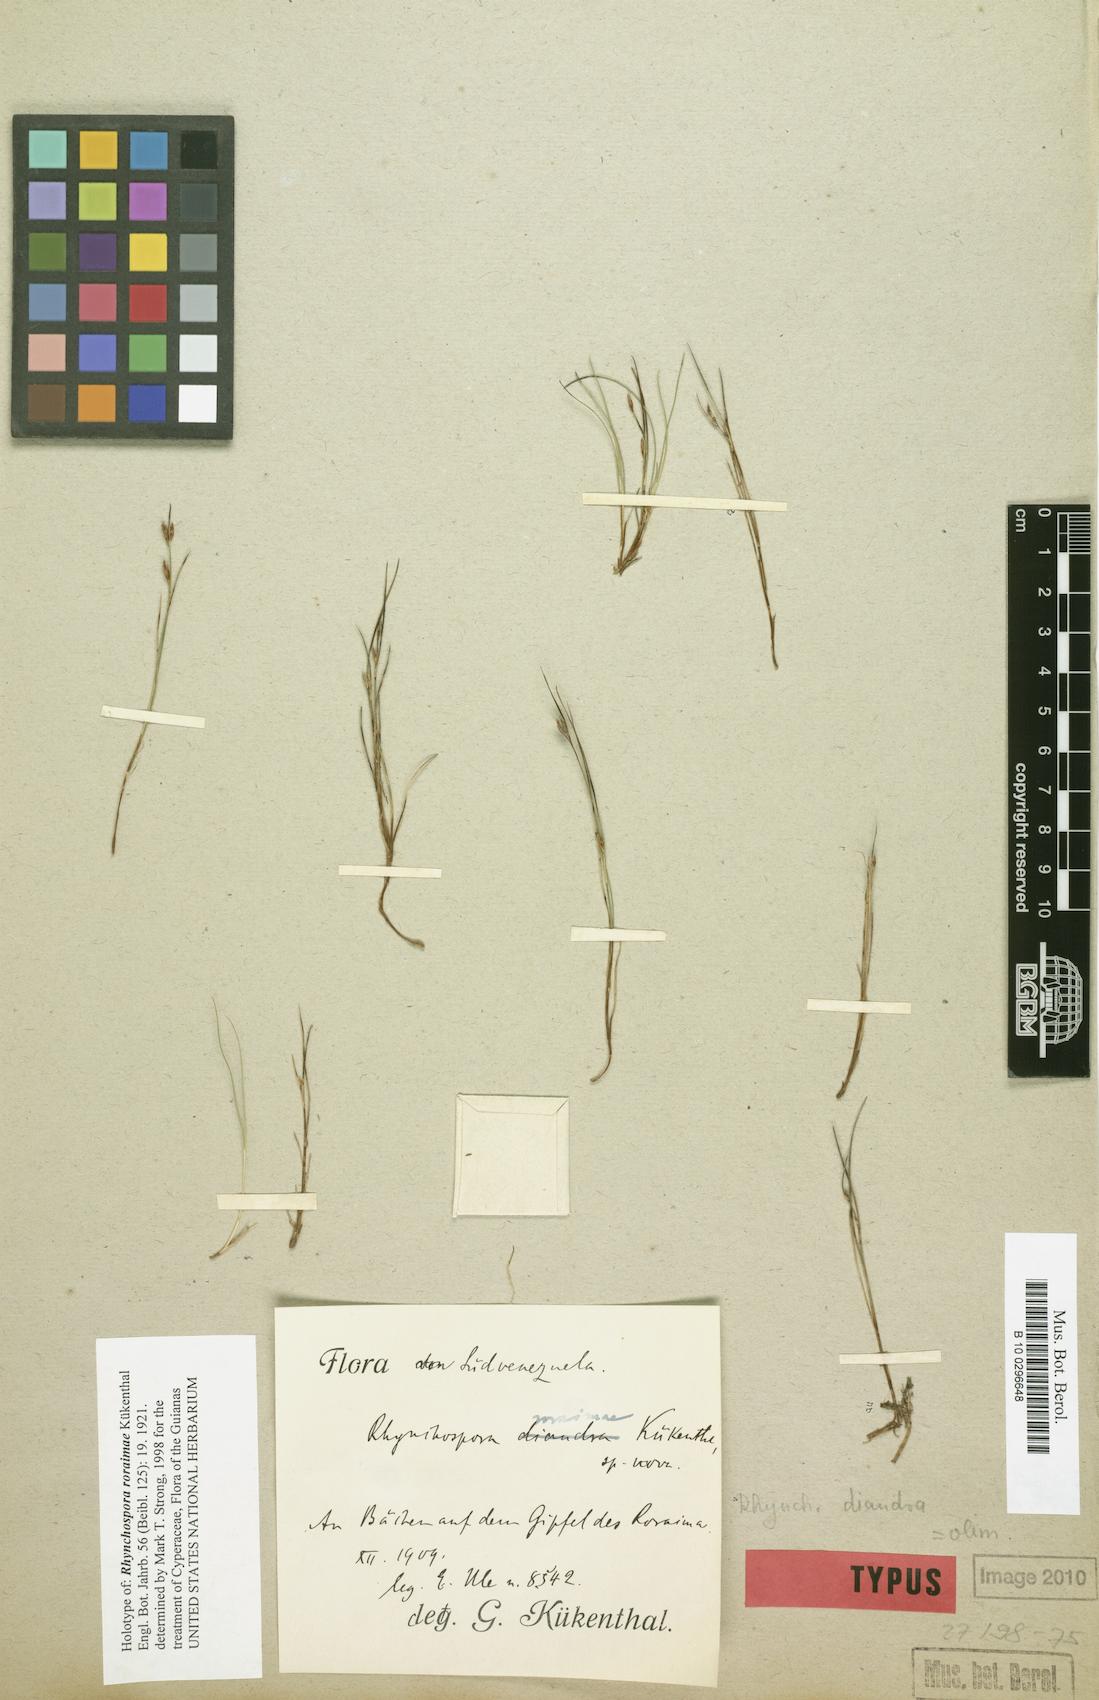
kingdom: Plantae
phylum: Tracheophyta
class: Liliopsida
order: Poales
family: Cyperaceae
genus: Rhynchospora
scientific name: Rhynchospora roraimae
